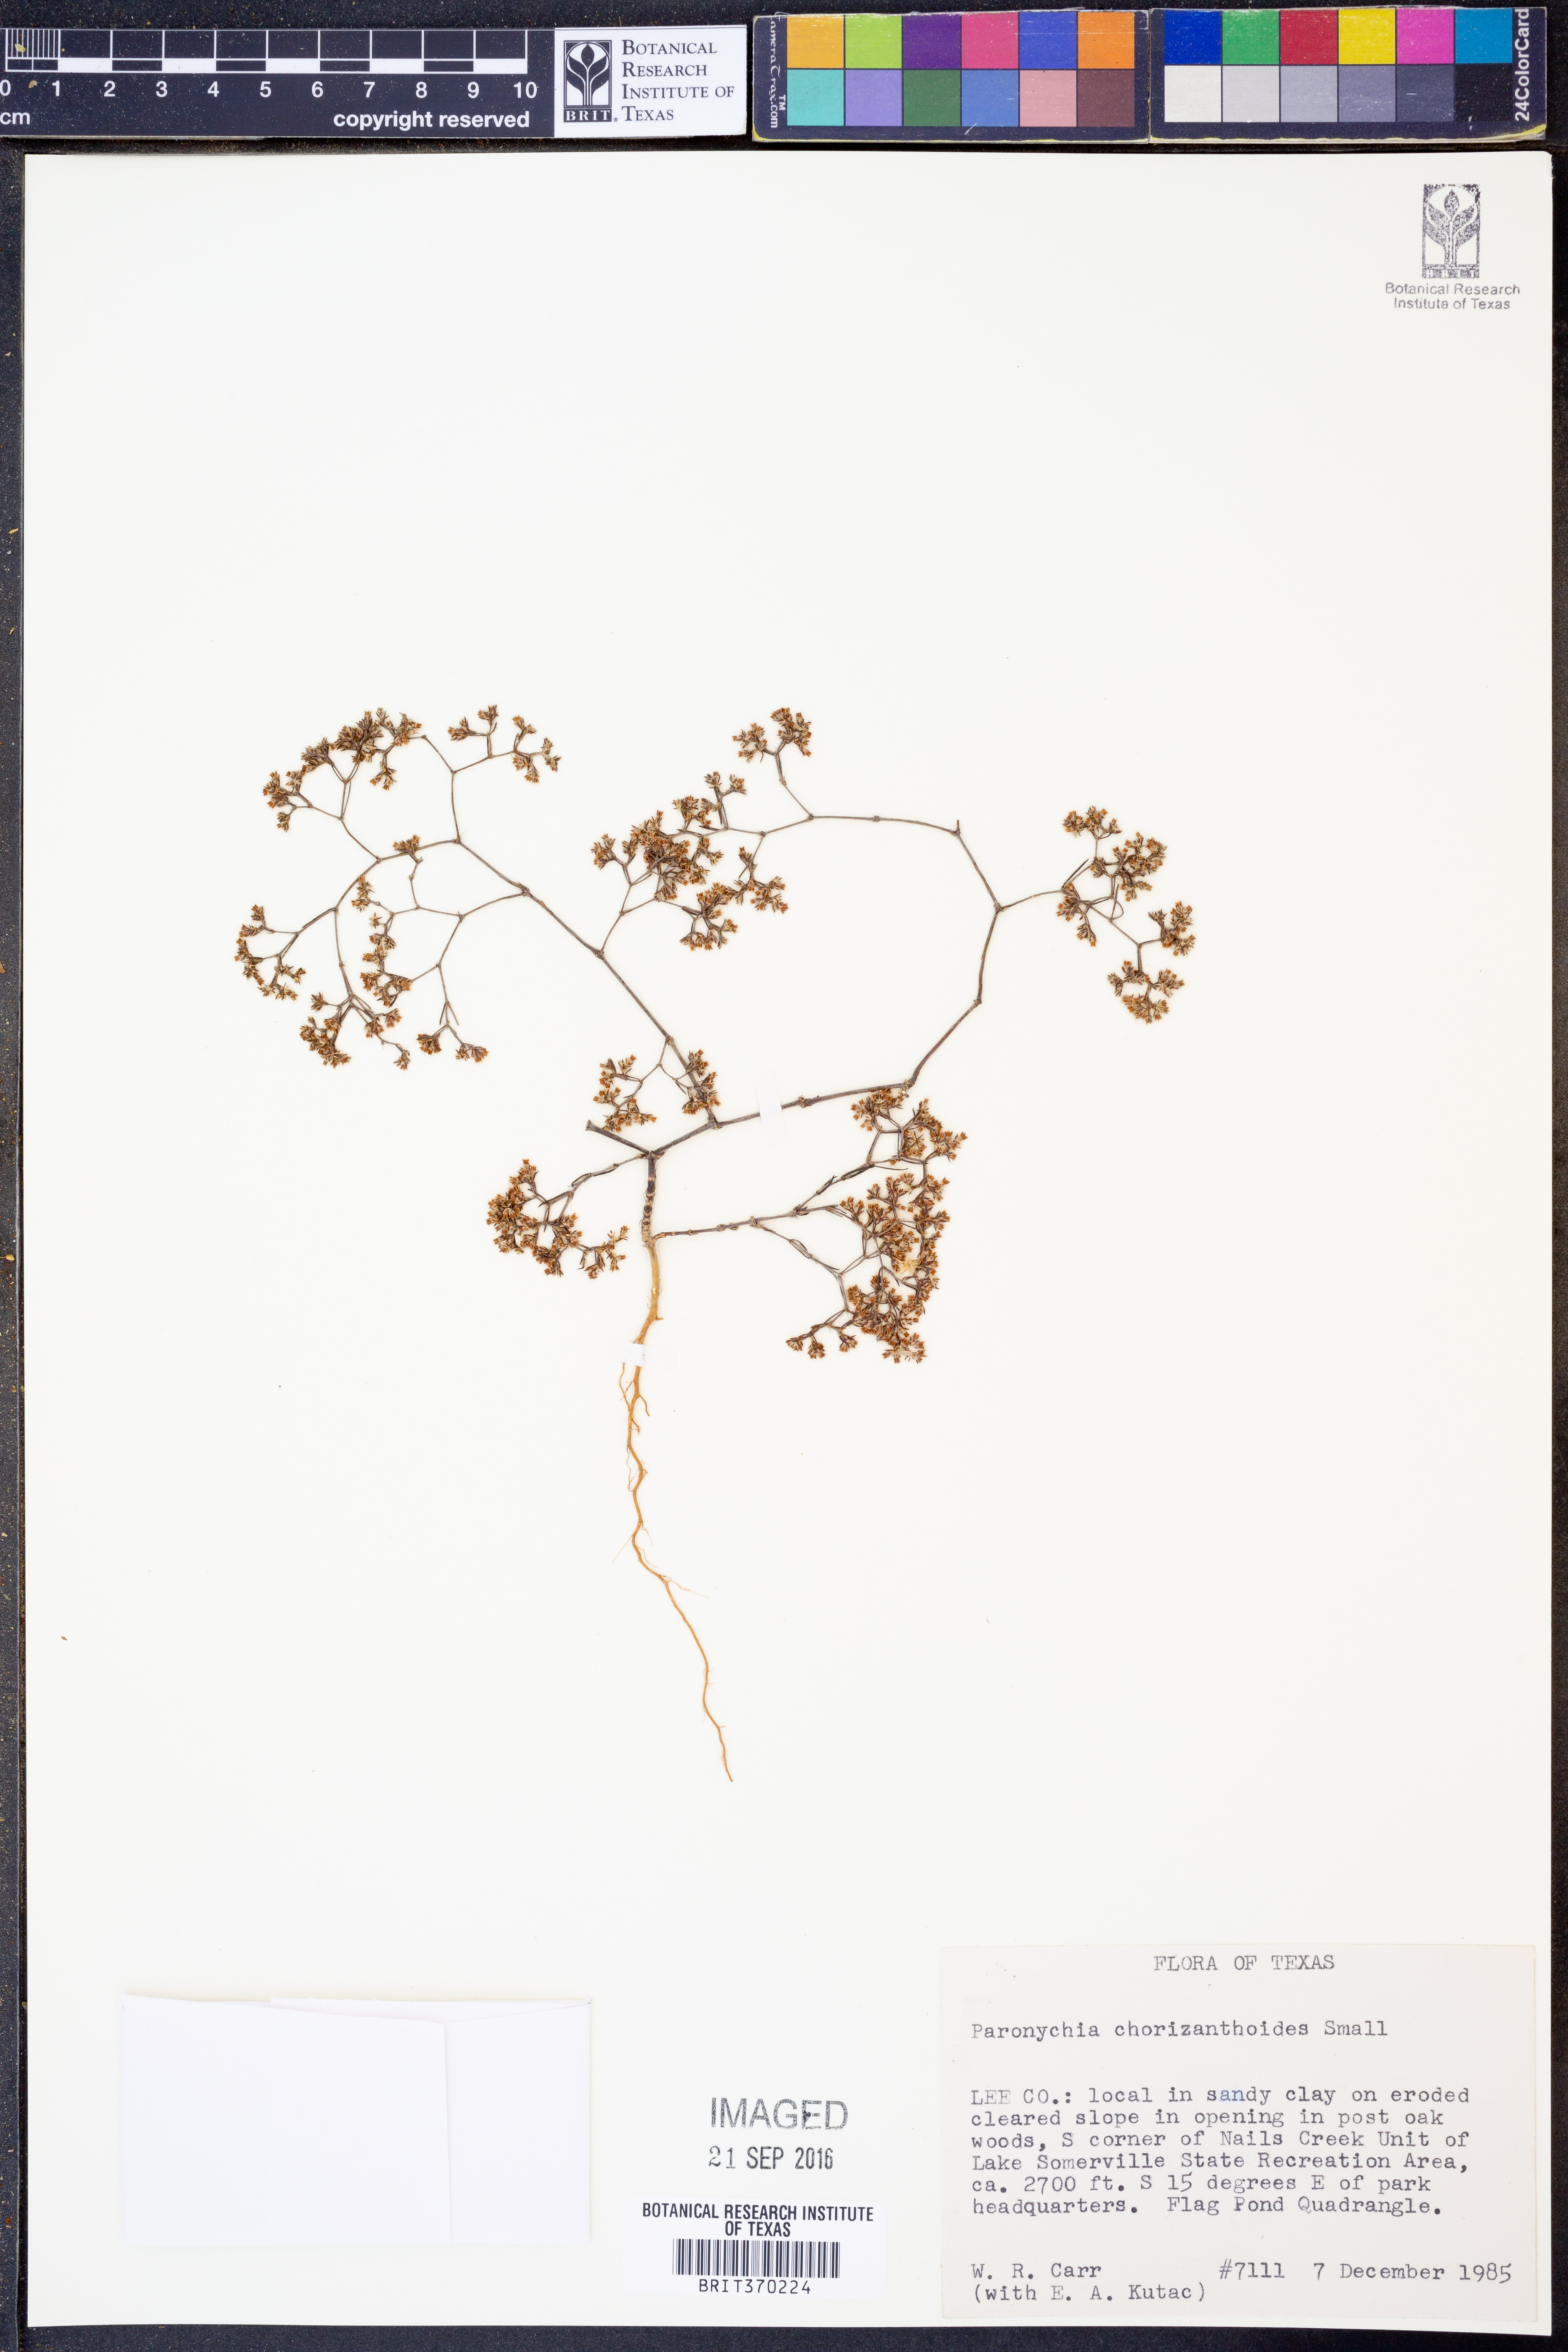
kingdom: Plantae
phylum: Tracheophyta
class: Magnoliopsida
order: Caryophyllales
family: Caryophyllaceae
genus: Paronychia
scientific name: Paronychia lindheimeri
